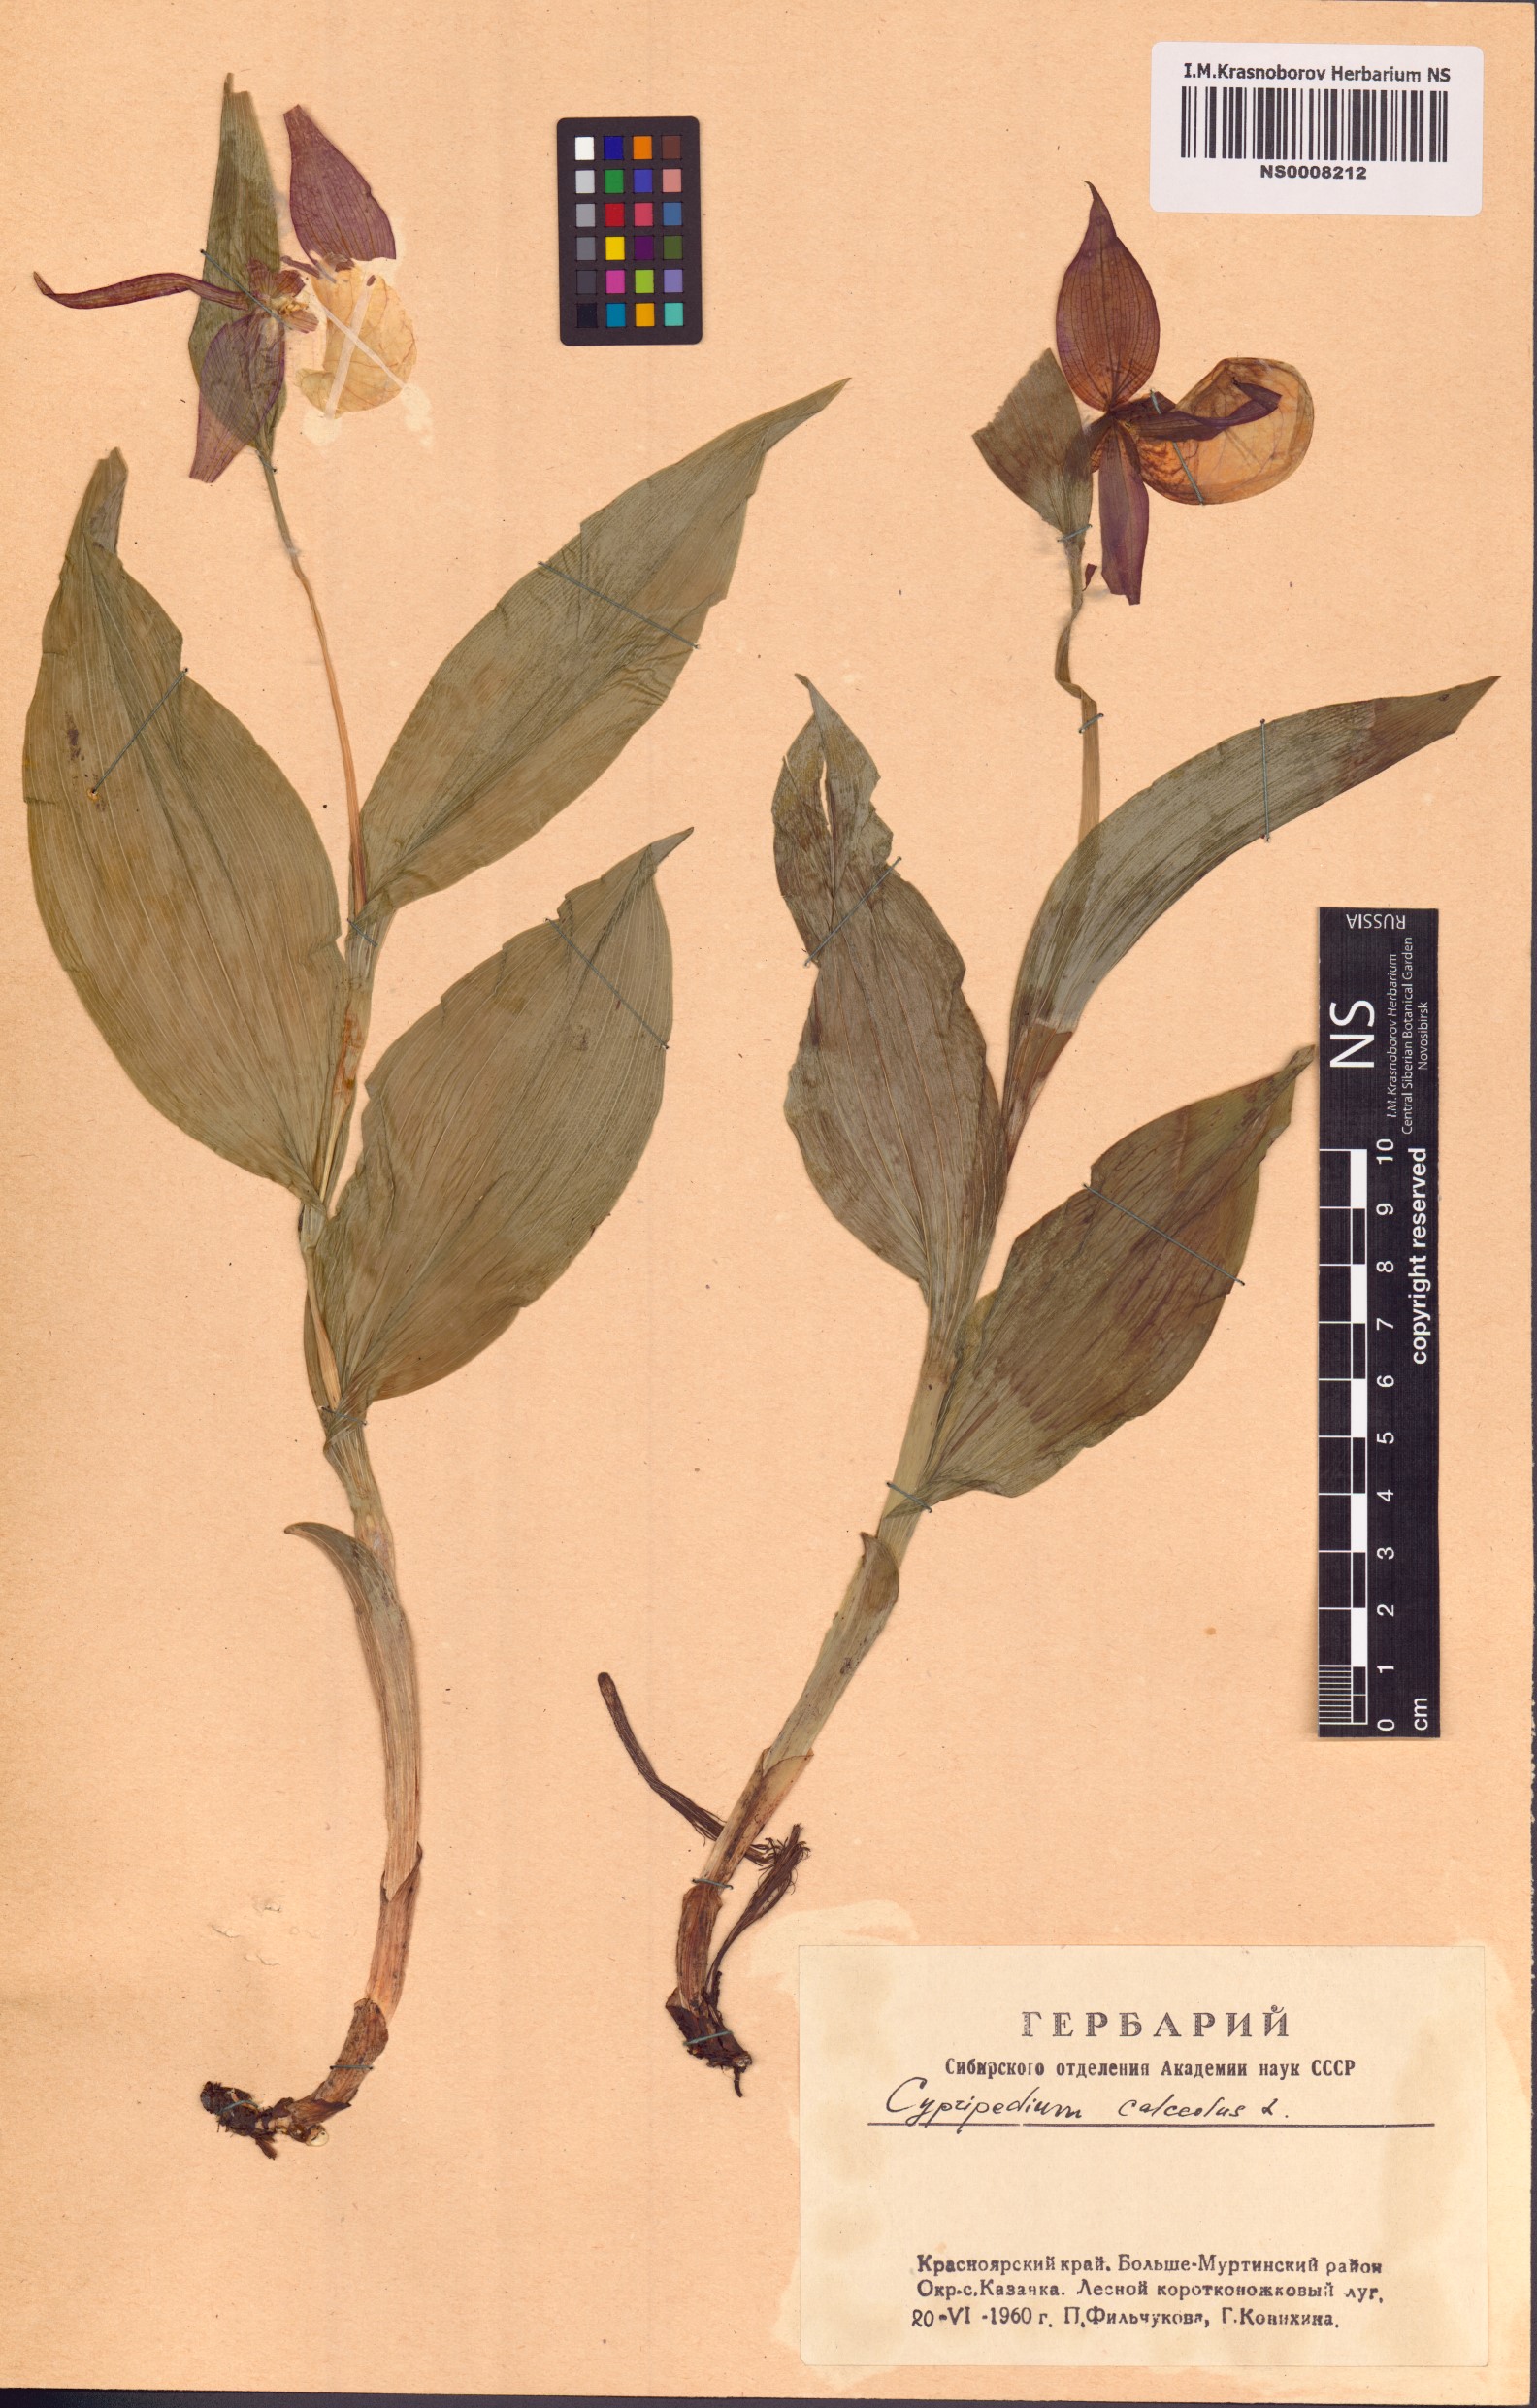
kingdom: Plantae
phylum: Tracheophyta
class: Liliopsida
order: Asparagales
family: Orchidaceae
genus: Cypripedium
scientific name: Cypripedium calceolus
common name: Lady's-slipper
